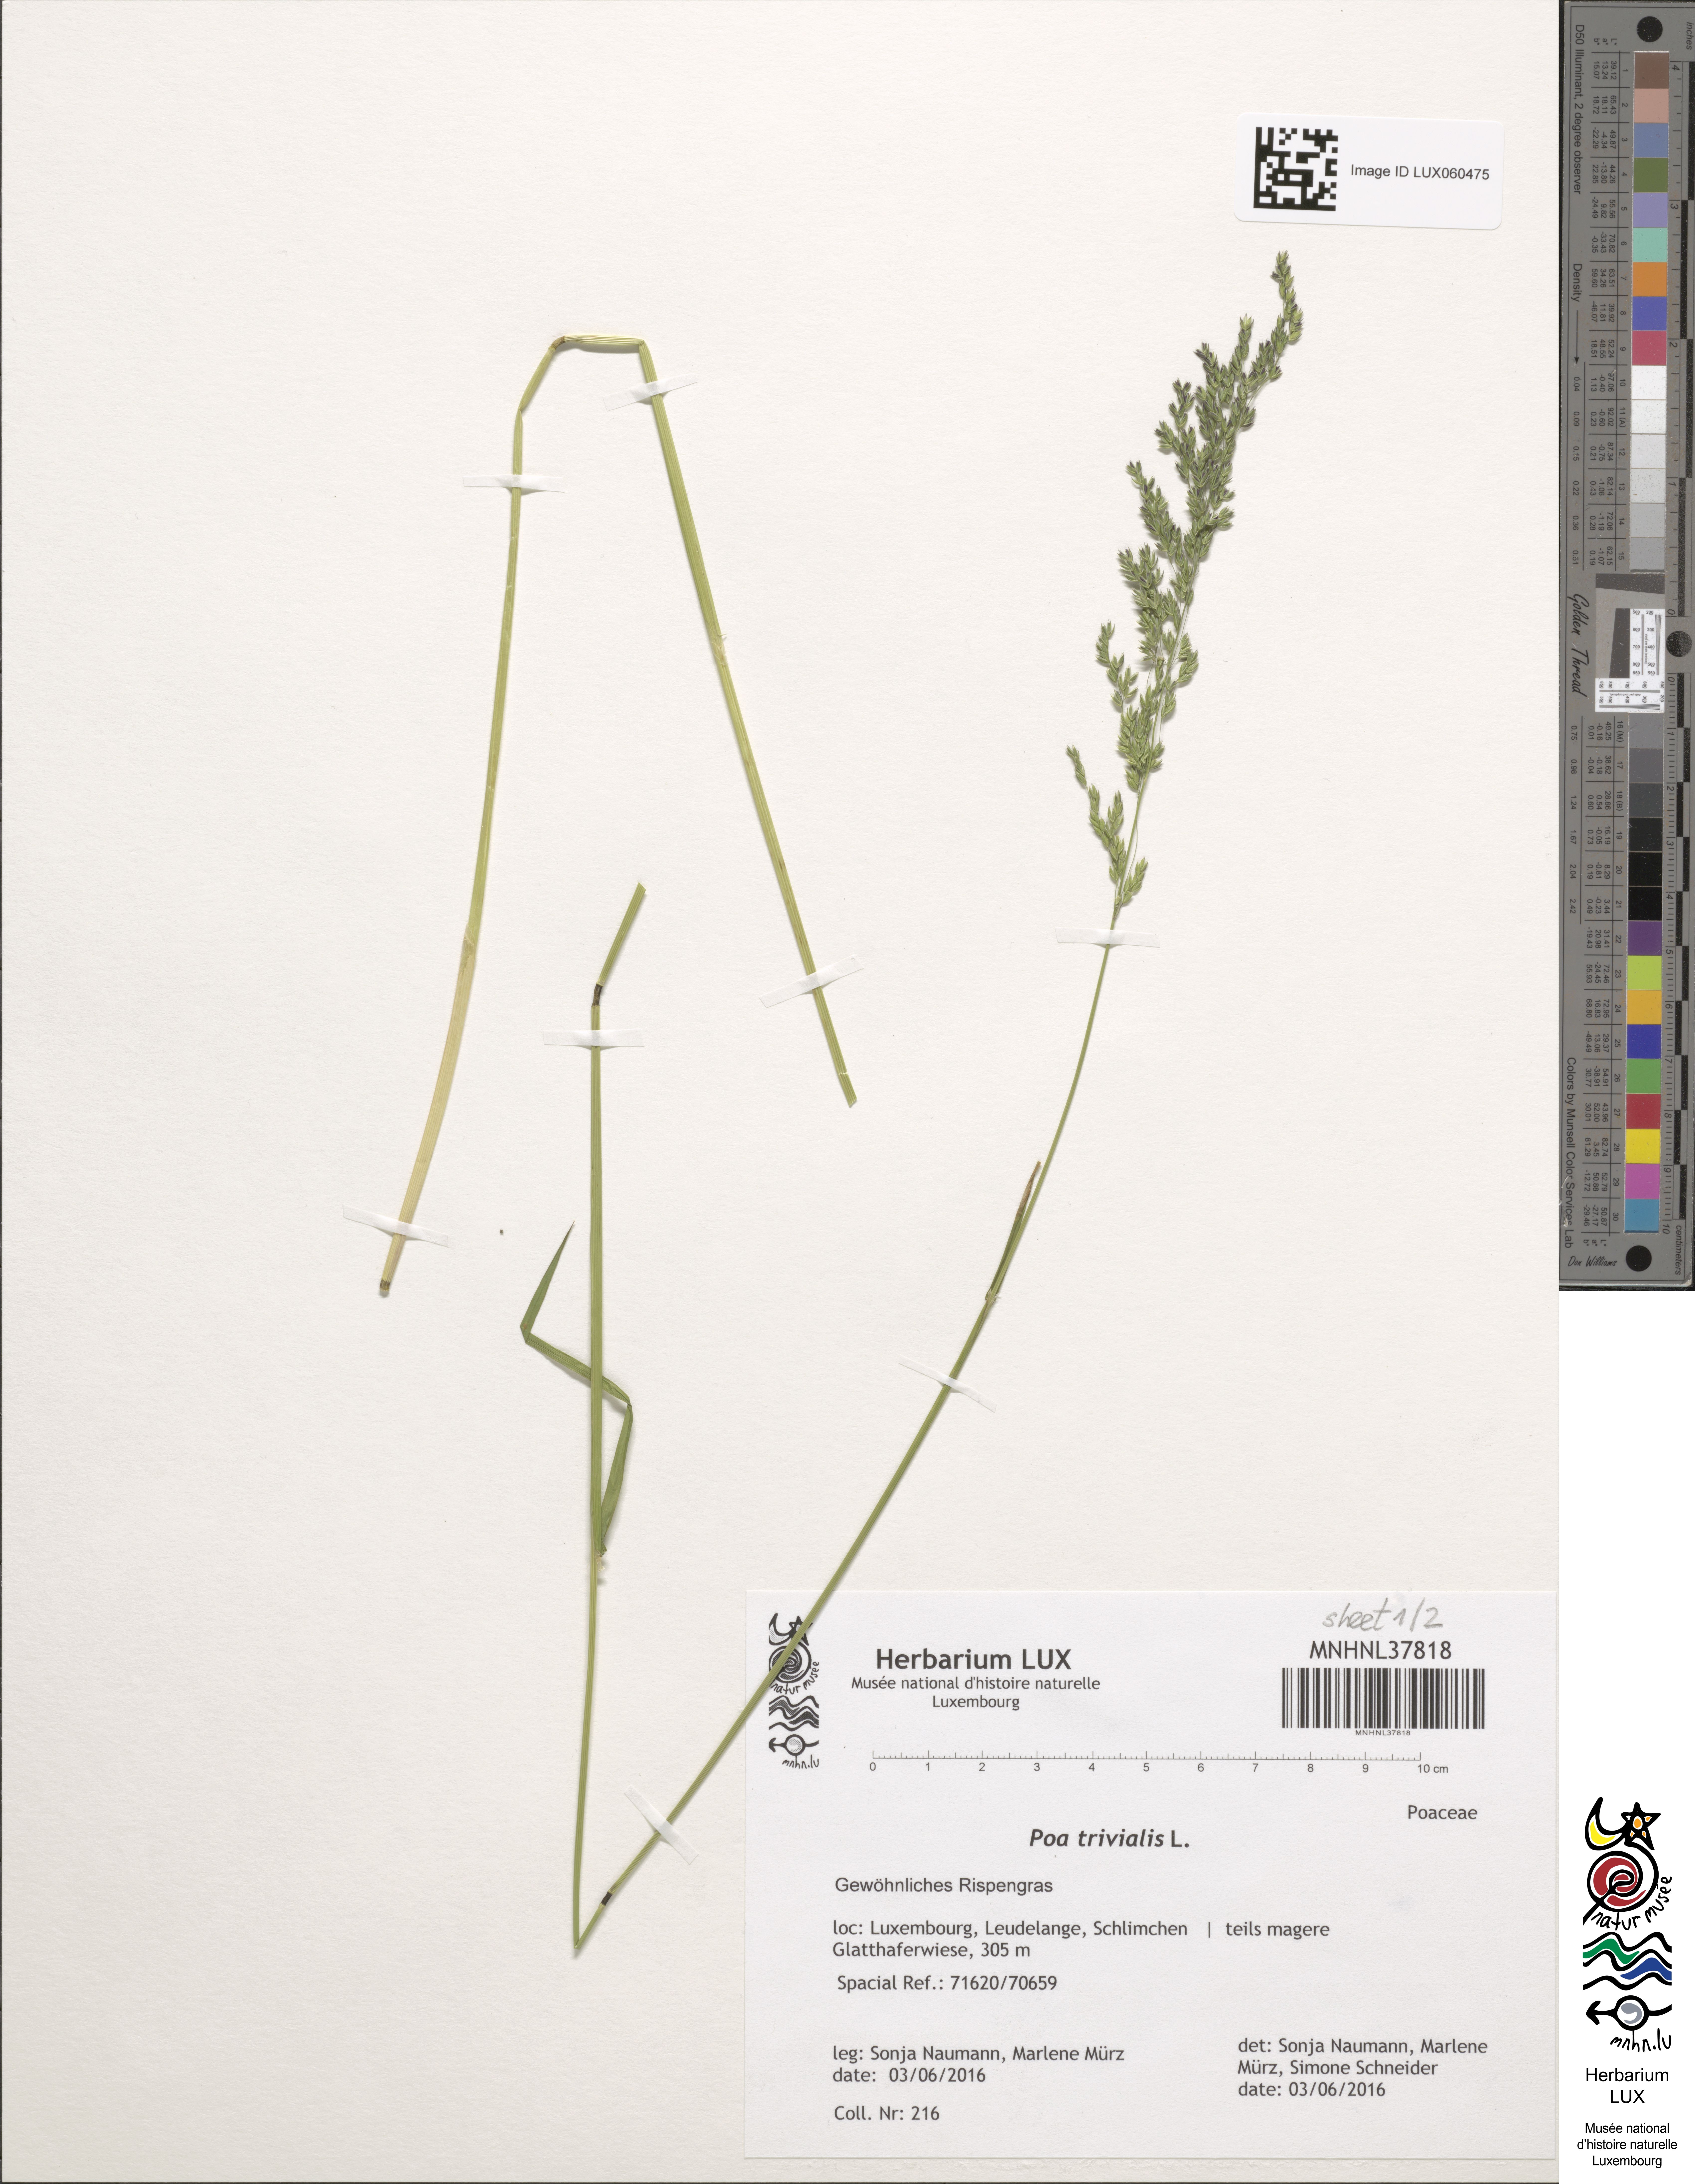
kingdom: Plantae
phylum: Tracheophyta
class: Liliopsida
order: Poales
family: Poaceae
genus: Poa
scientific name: Poa trivialis
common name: Rough bluegrass
